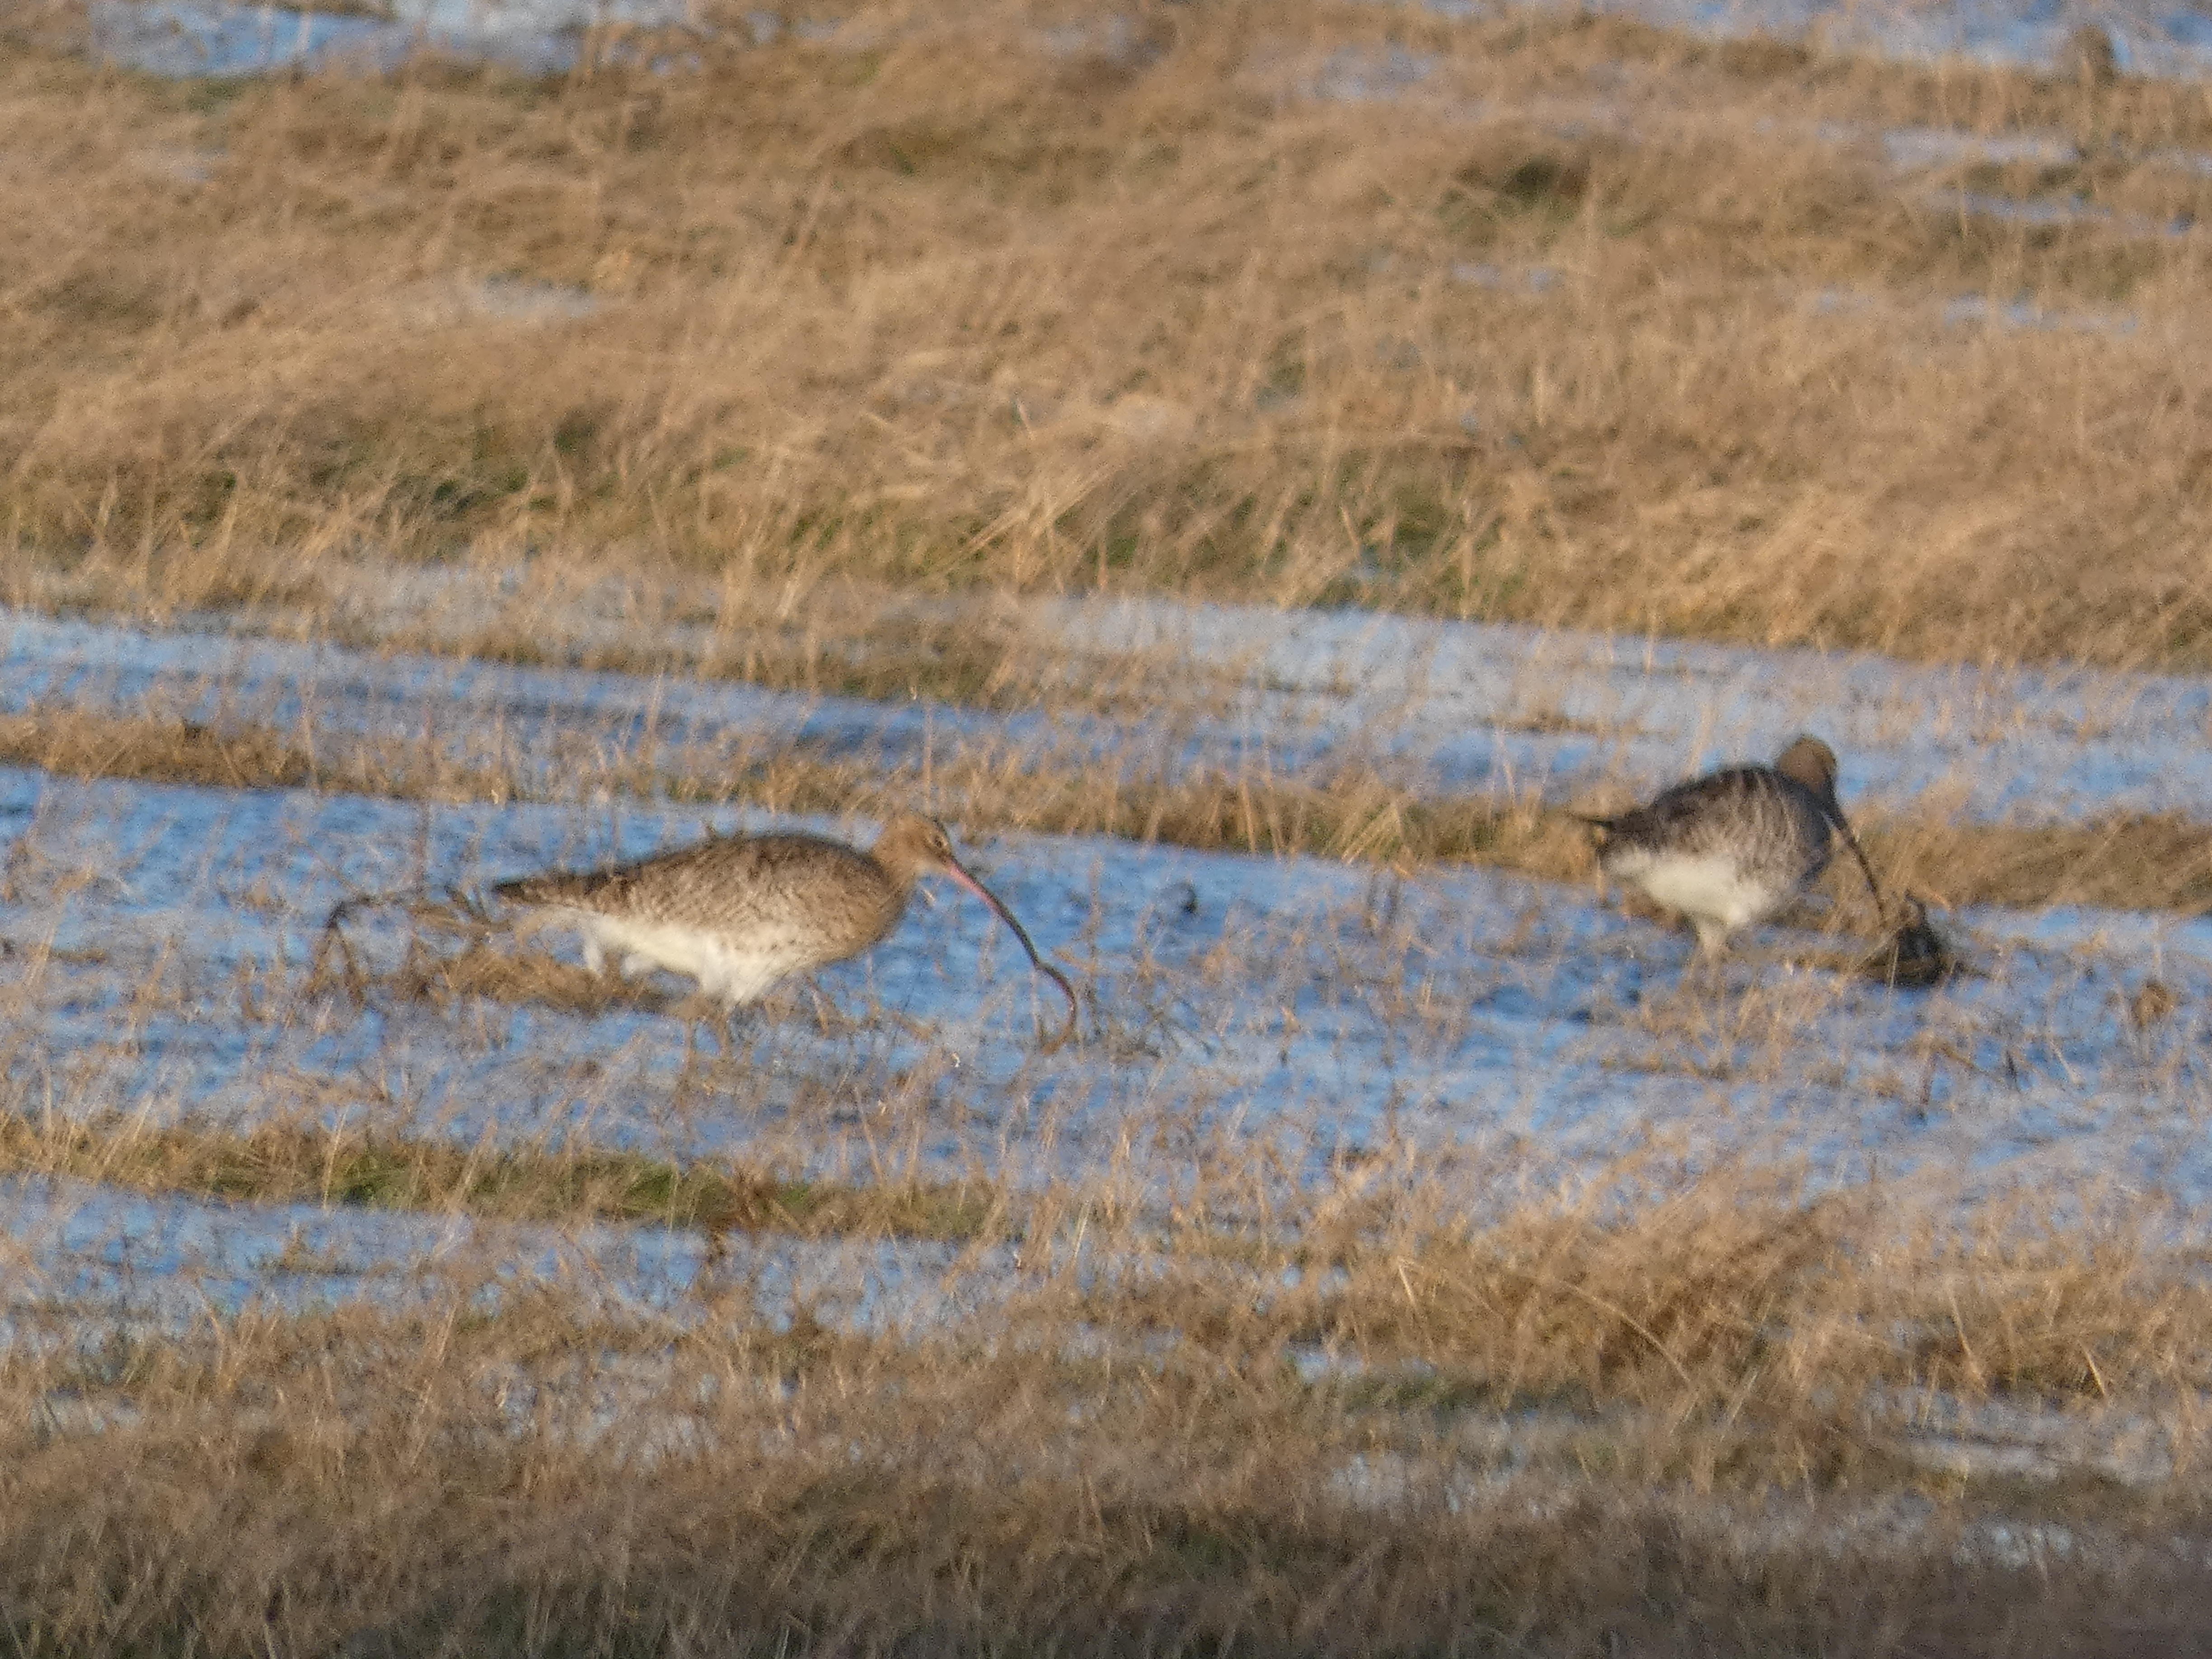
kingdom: Animalia
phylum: Chordata
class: Aves
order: Charadriiformes
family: Scolopacidae
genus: Numenius
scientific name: Numenius arquata
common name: Storspove
